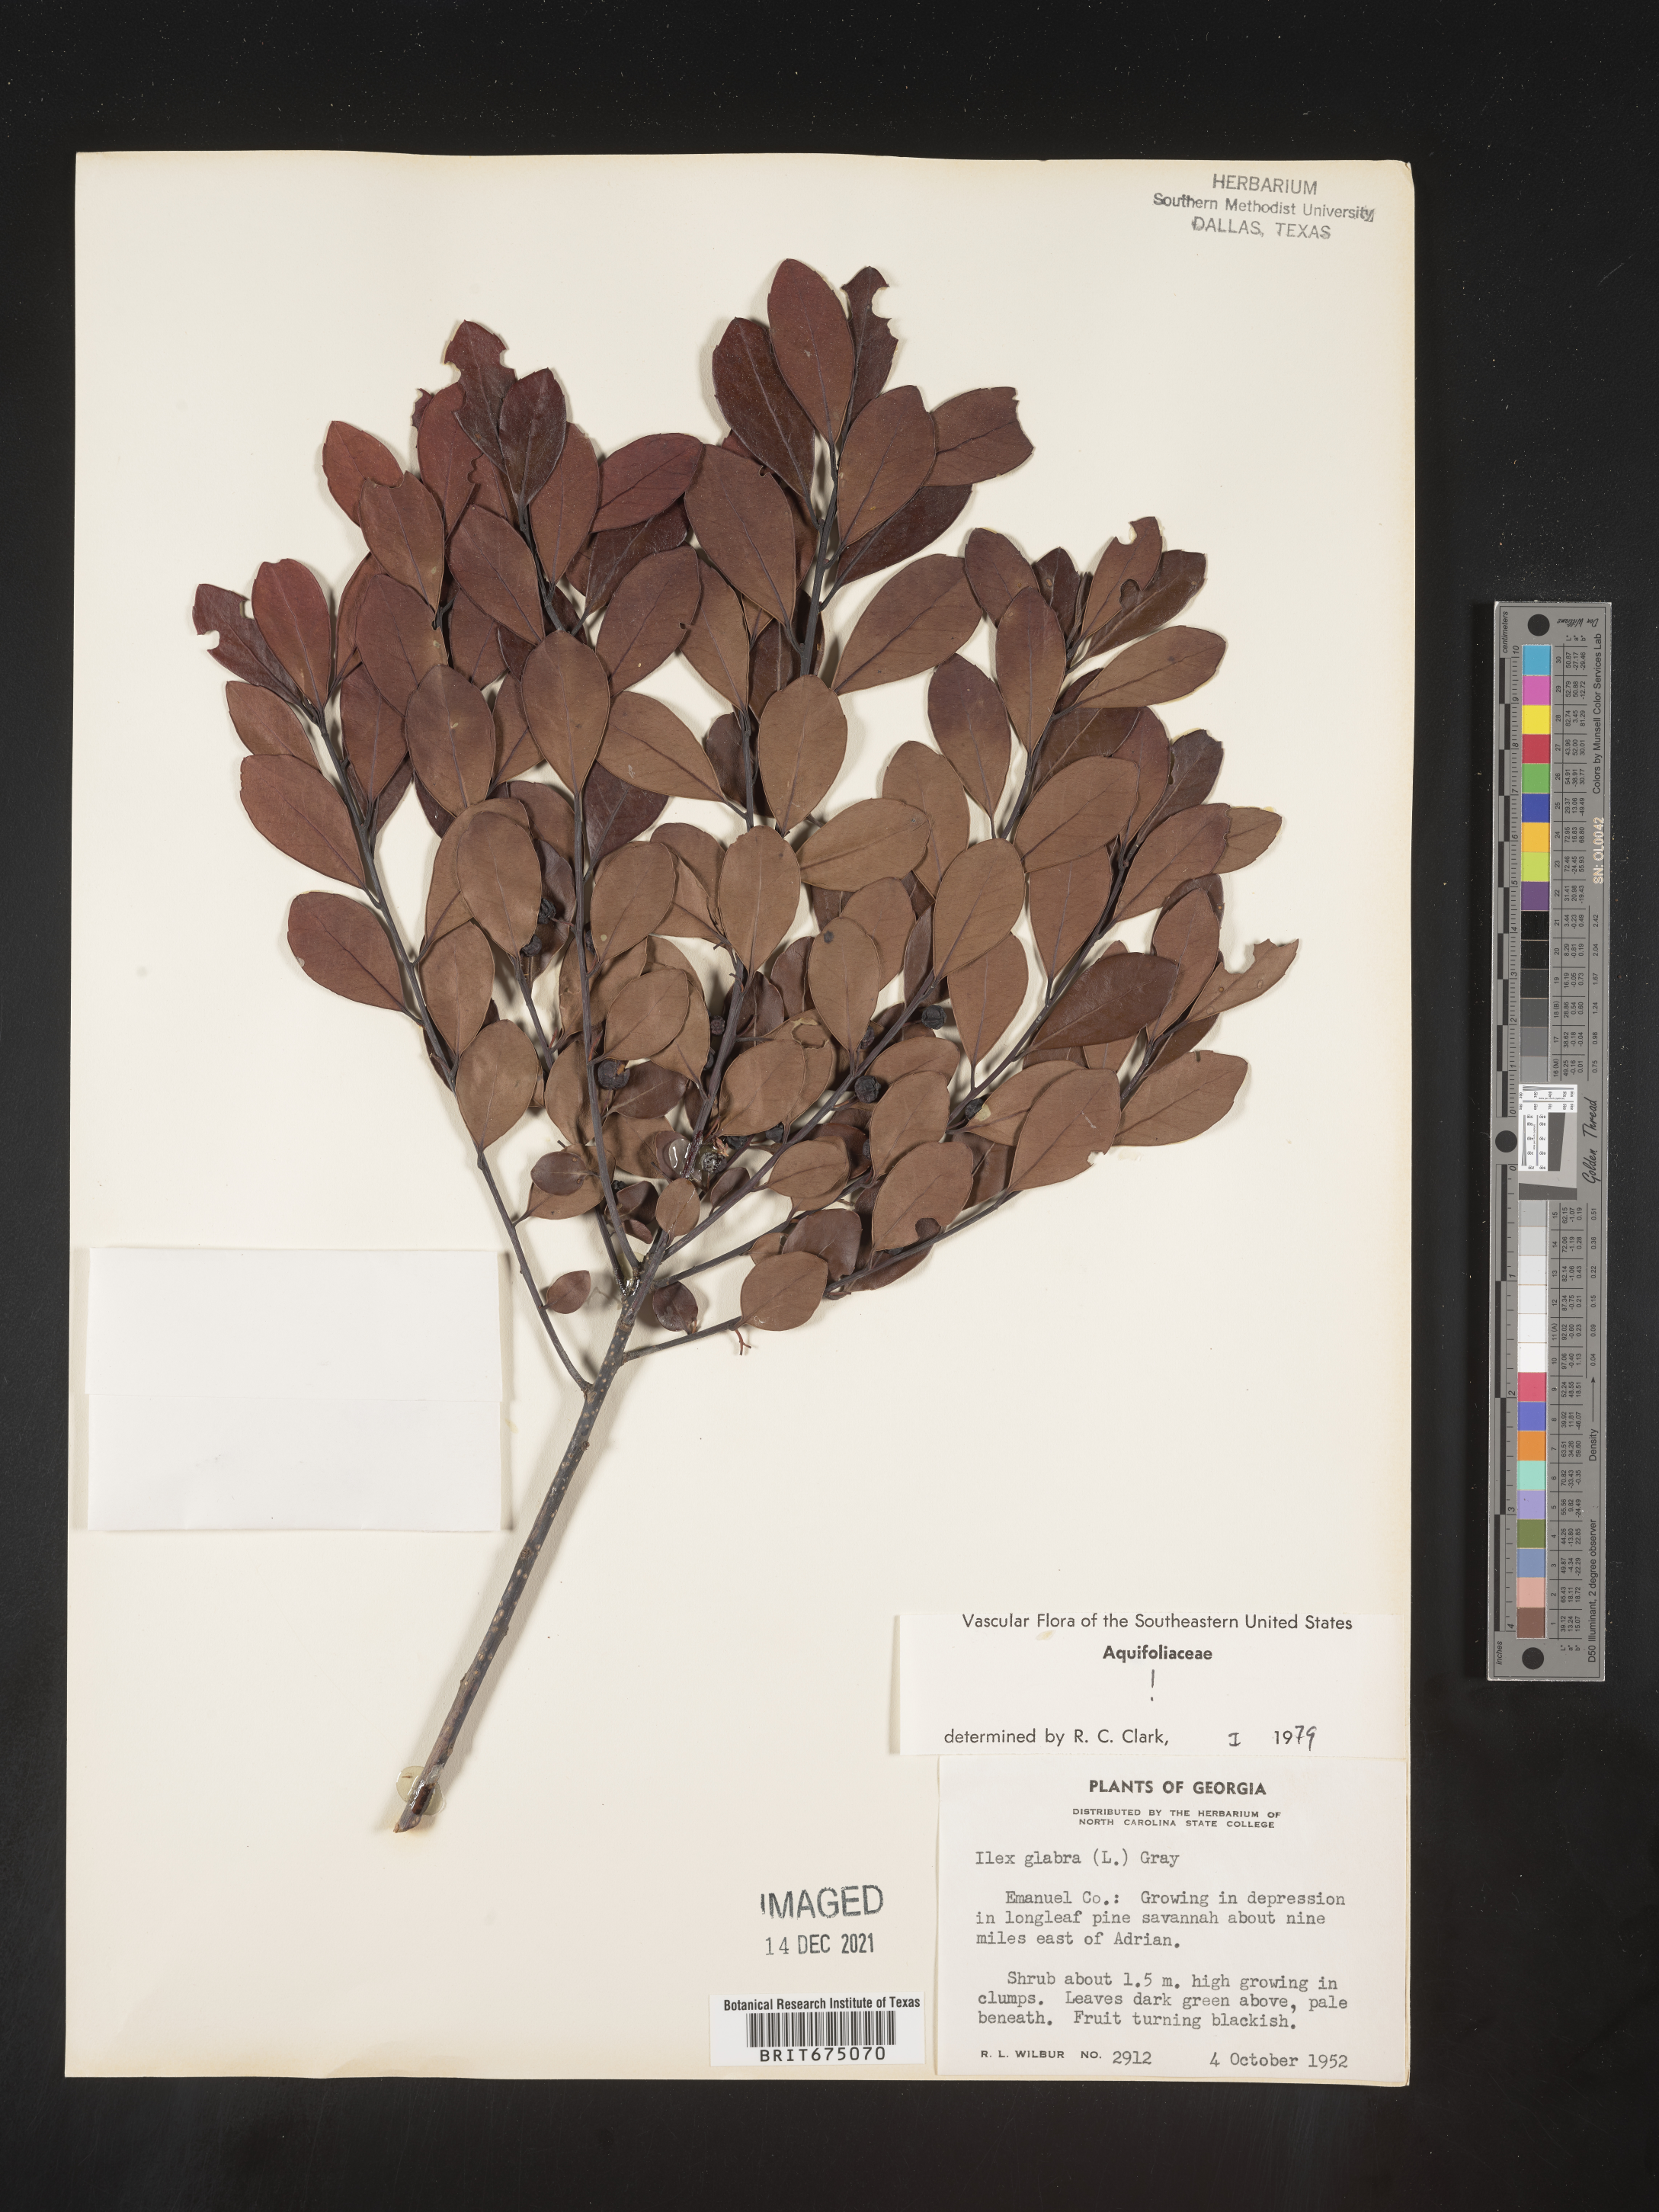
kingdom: Plantae
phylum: Tracheophyta
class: Magnoliopsida
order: Aquifoliales
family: Aquifoliaceae
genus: Ilex
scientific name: Ilex glabra
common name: Bitter gallberry
